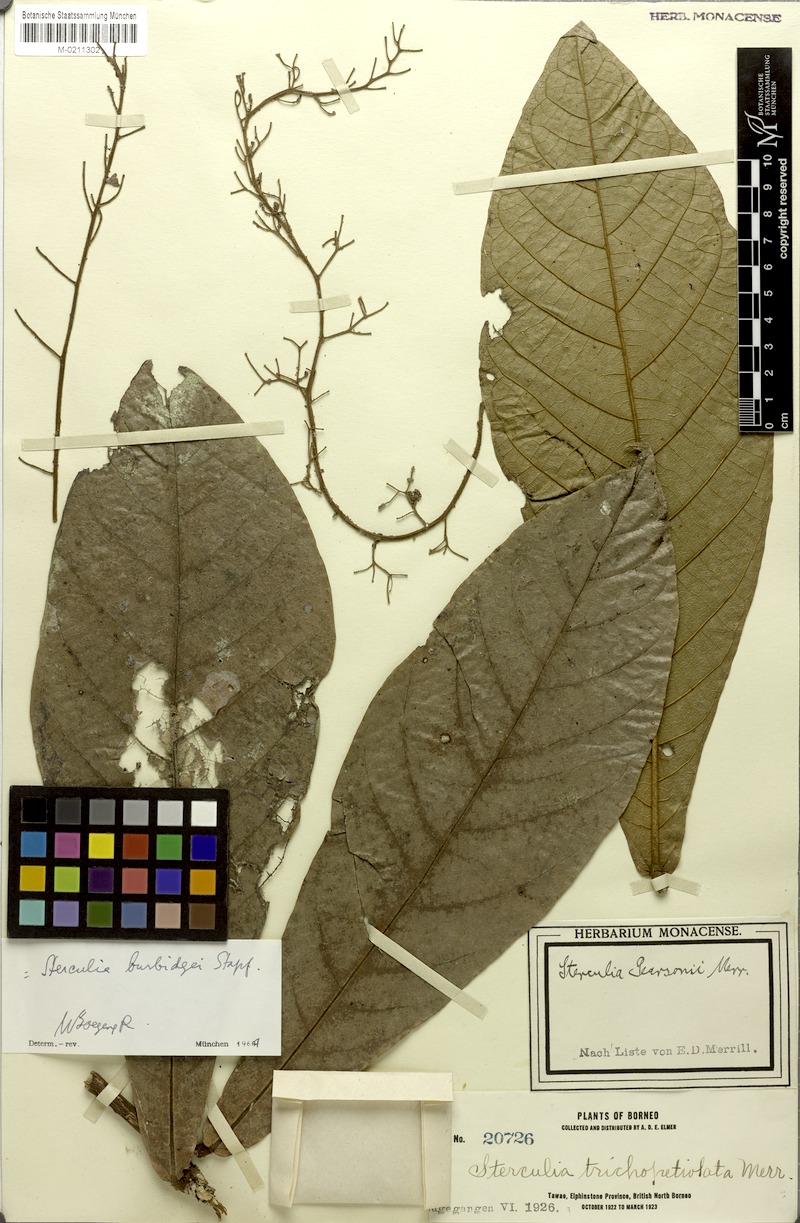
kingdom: Plantae
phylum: Tracheophyta
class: Magnoliopsida
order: Malvales
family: Malvaceae
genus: Sterculia
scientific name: Sterculia stipulata
